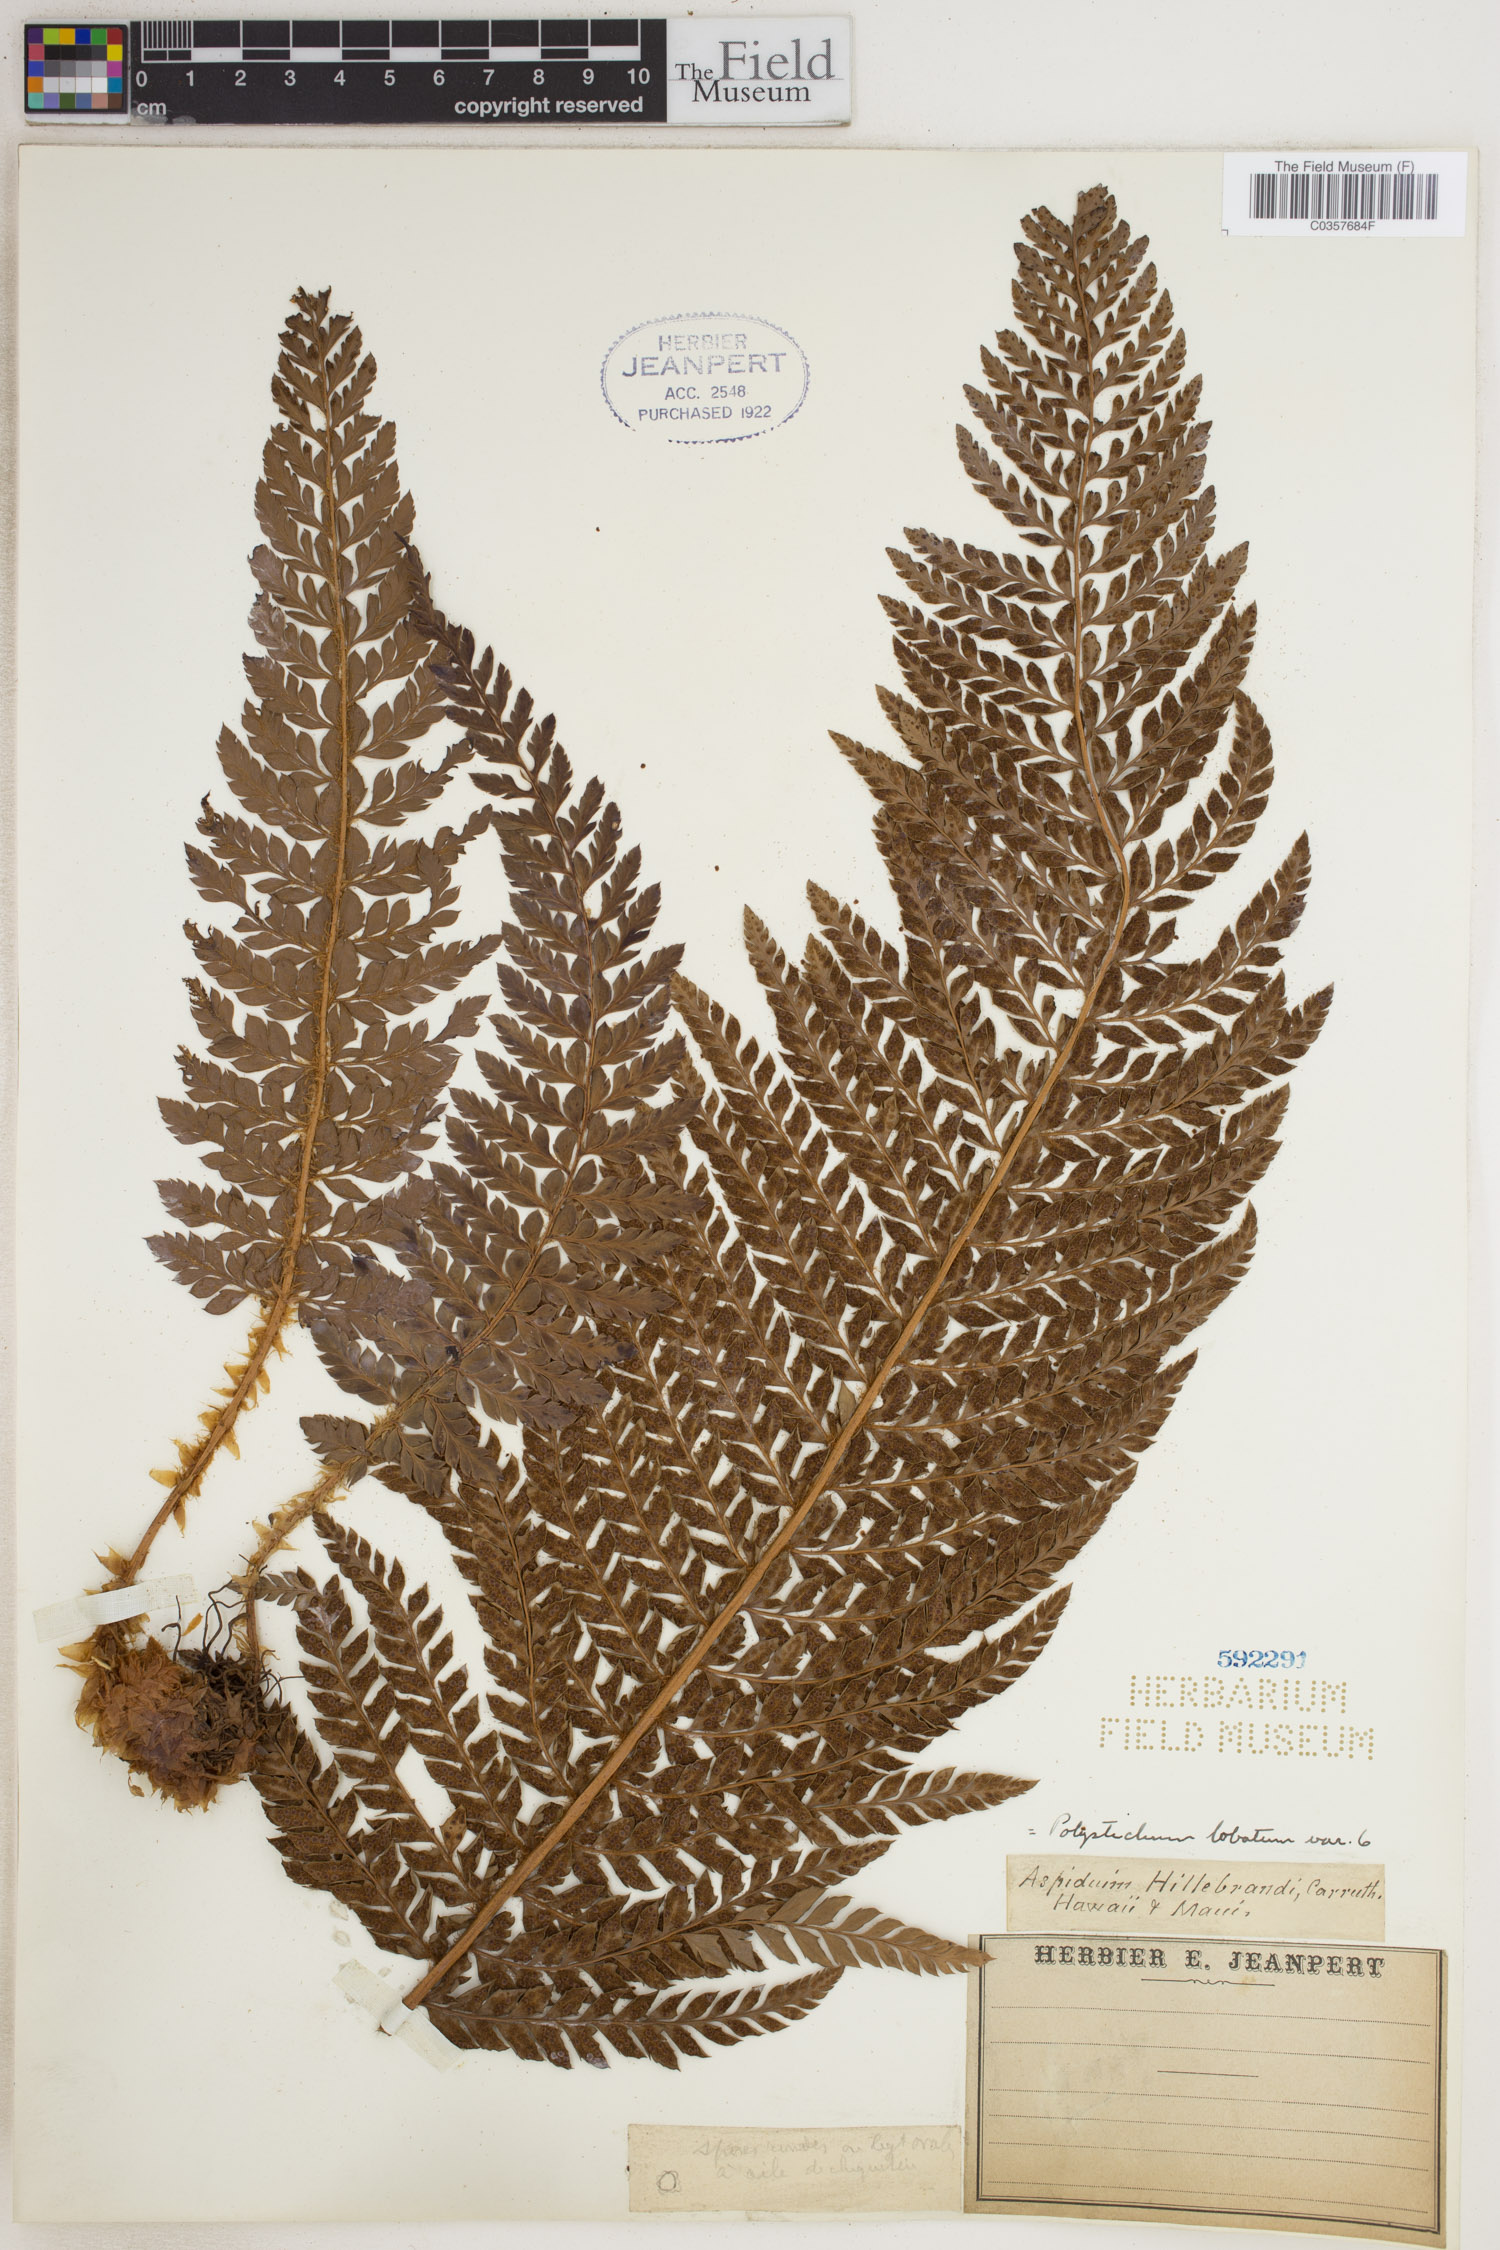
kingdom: Plantae
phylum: Tracheophyta
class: Polypodiopsida
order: Polypodiales
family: Dryopteridaceae
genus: Polystichum
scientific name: Polystichum aculeatum
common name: Hard shield-fern
